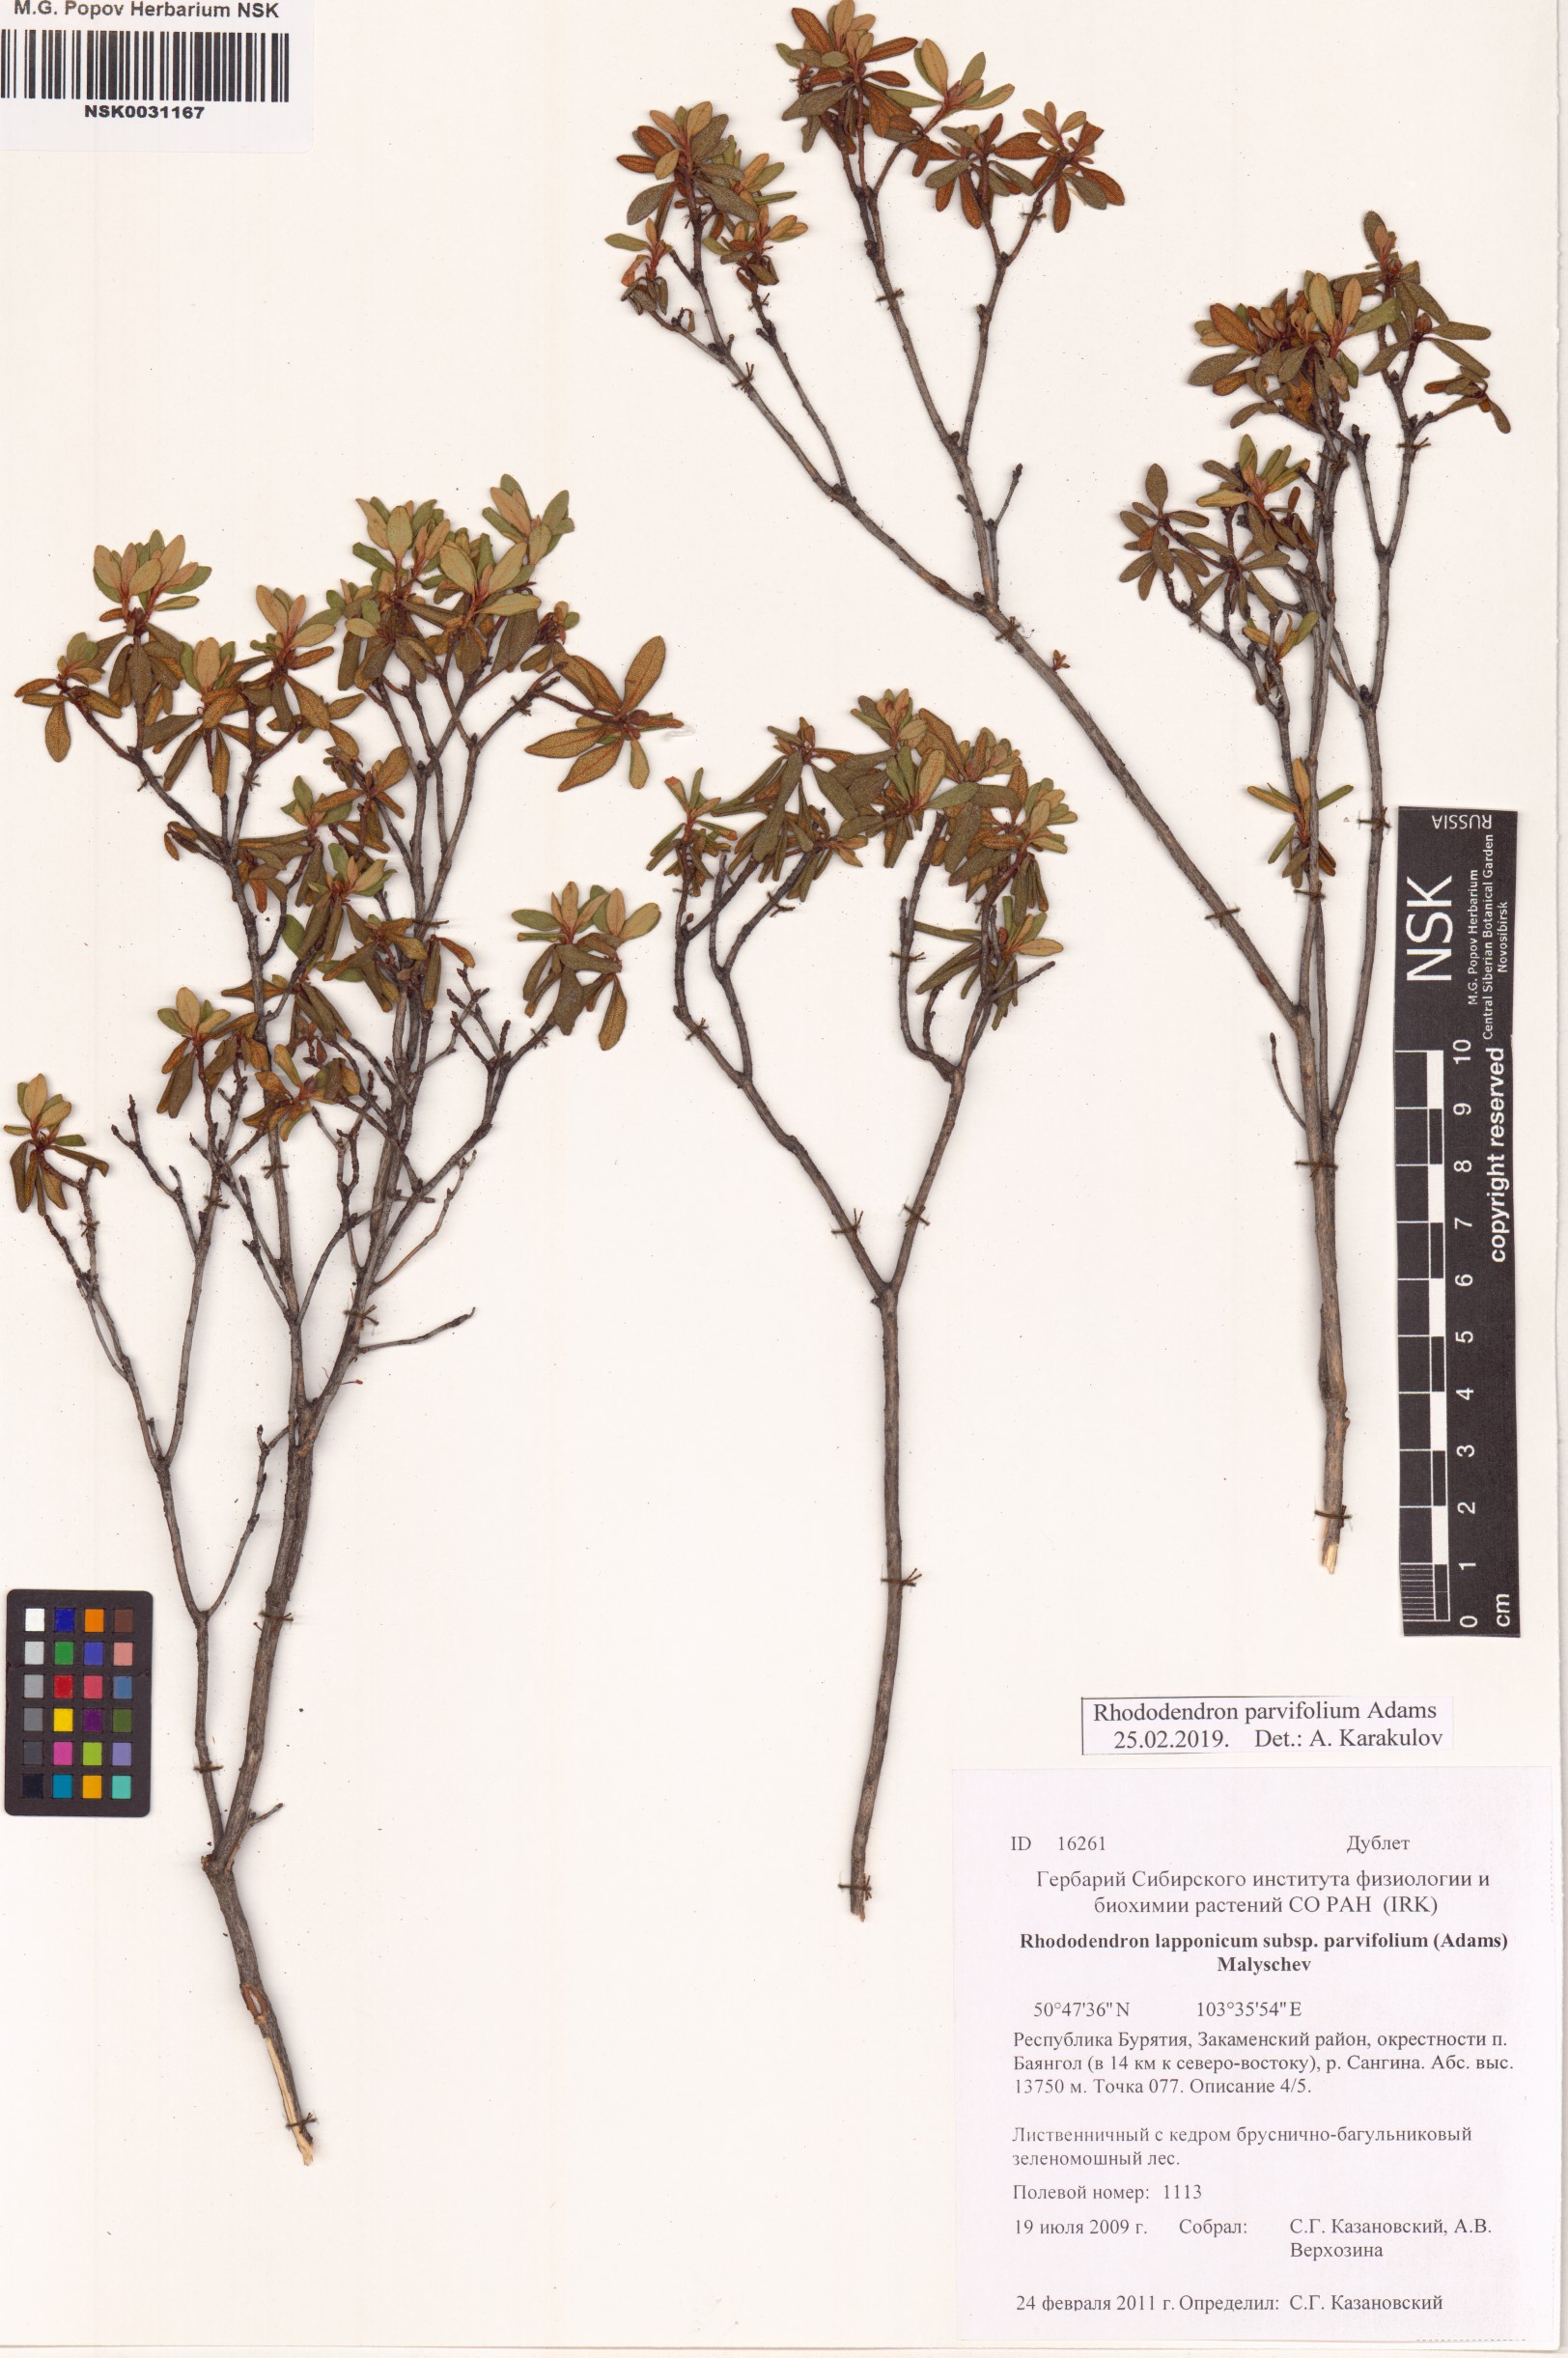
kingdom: Plantae
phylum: Tracheophyta
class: Magnoliopsida
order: Ericales
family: Ericaceae
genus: Rhododendron
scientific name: Rhododendron parvifolium
